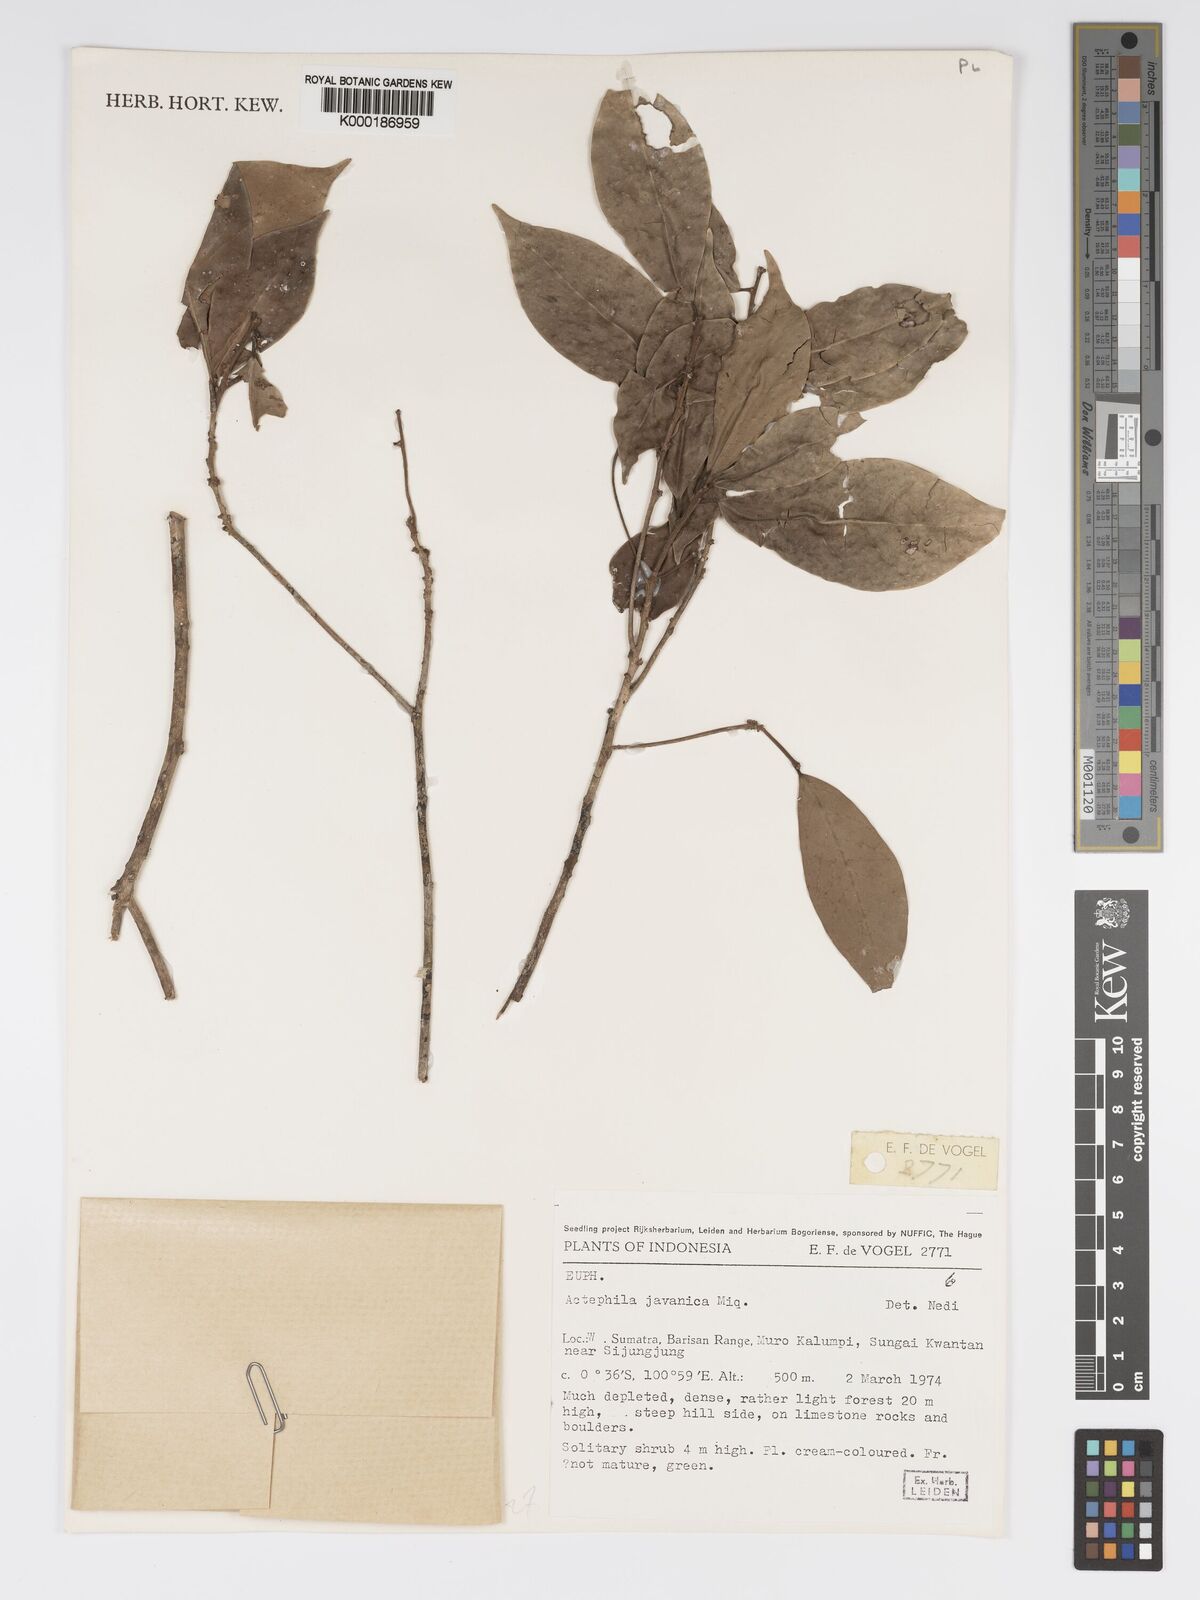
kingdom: Plantae
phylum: Tracheophyta
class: Magnoliopsida
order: Malpighiales
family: Phyllanthaceae
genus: Actephila
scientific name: Actephila
